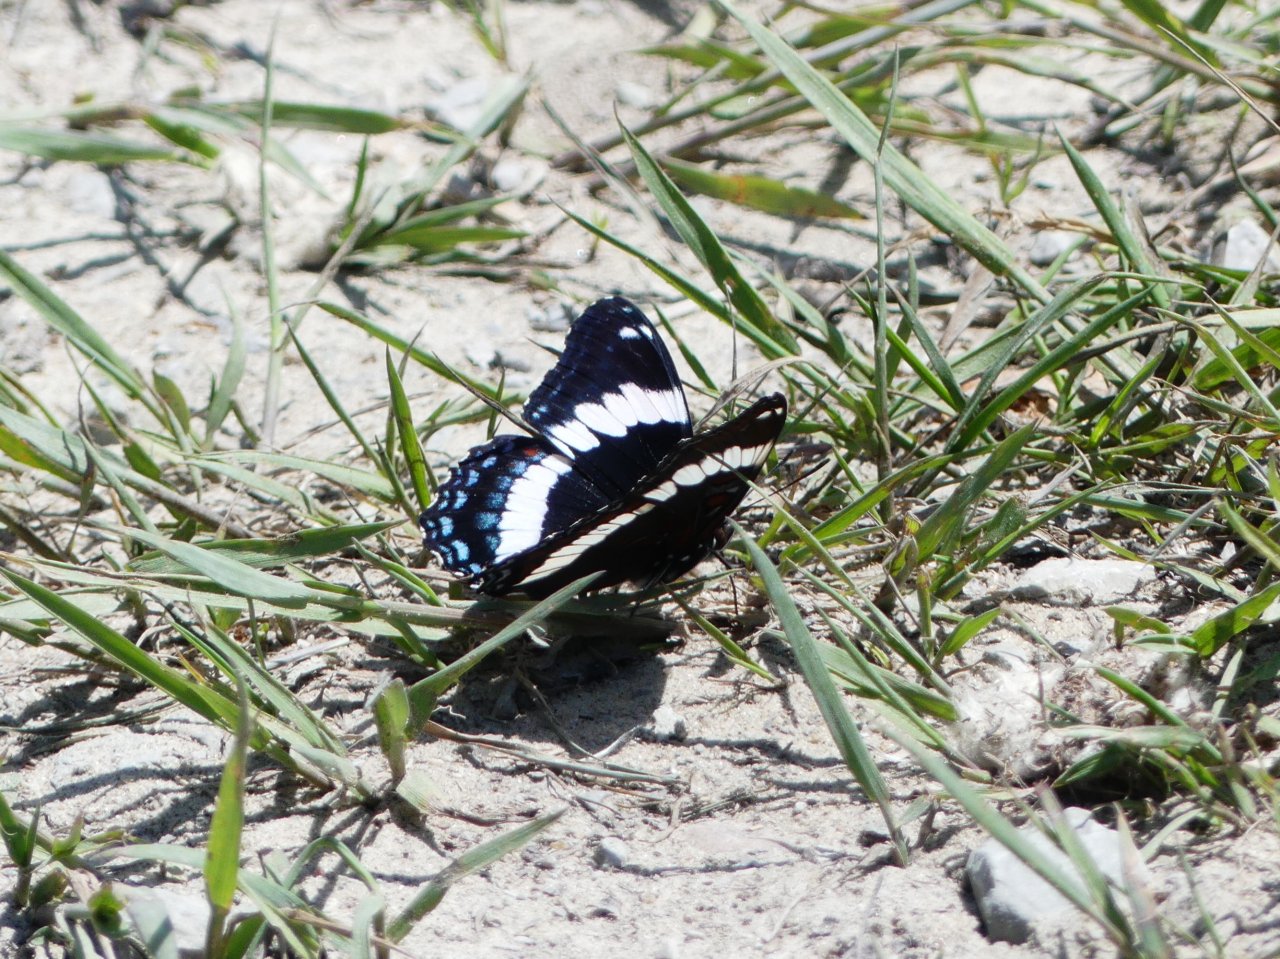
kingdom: Animalia
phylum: Arthropoda
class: Insecta
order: Lepidoptera
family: Nymphalidae
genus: Limenitis
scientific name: Limenitis arthemis
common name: Red-spotted Admiral
